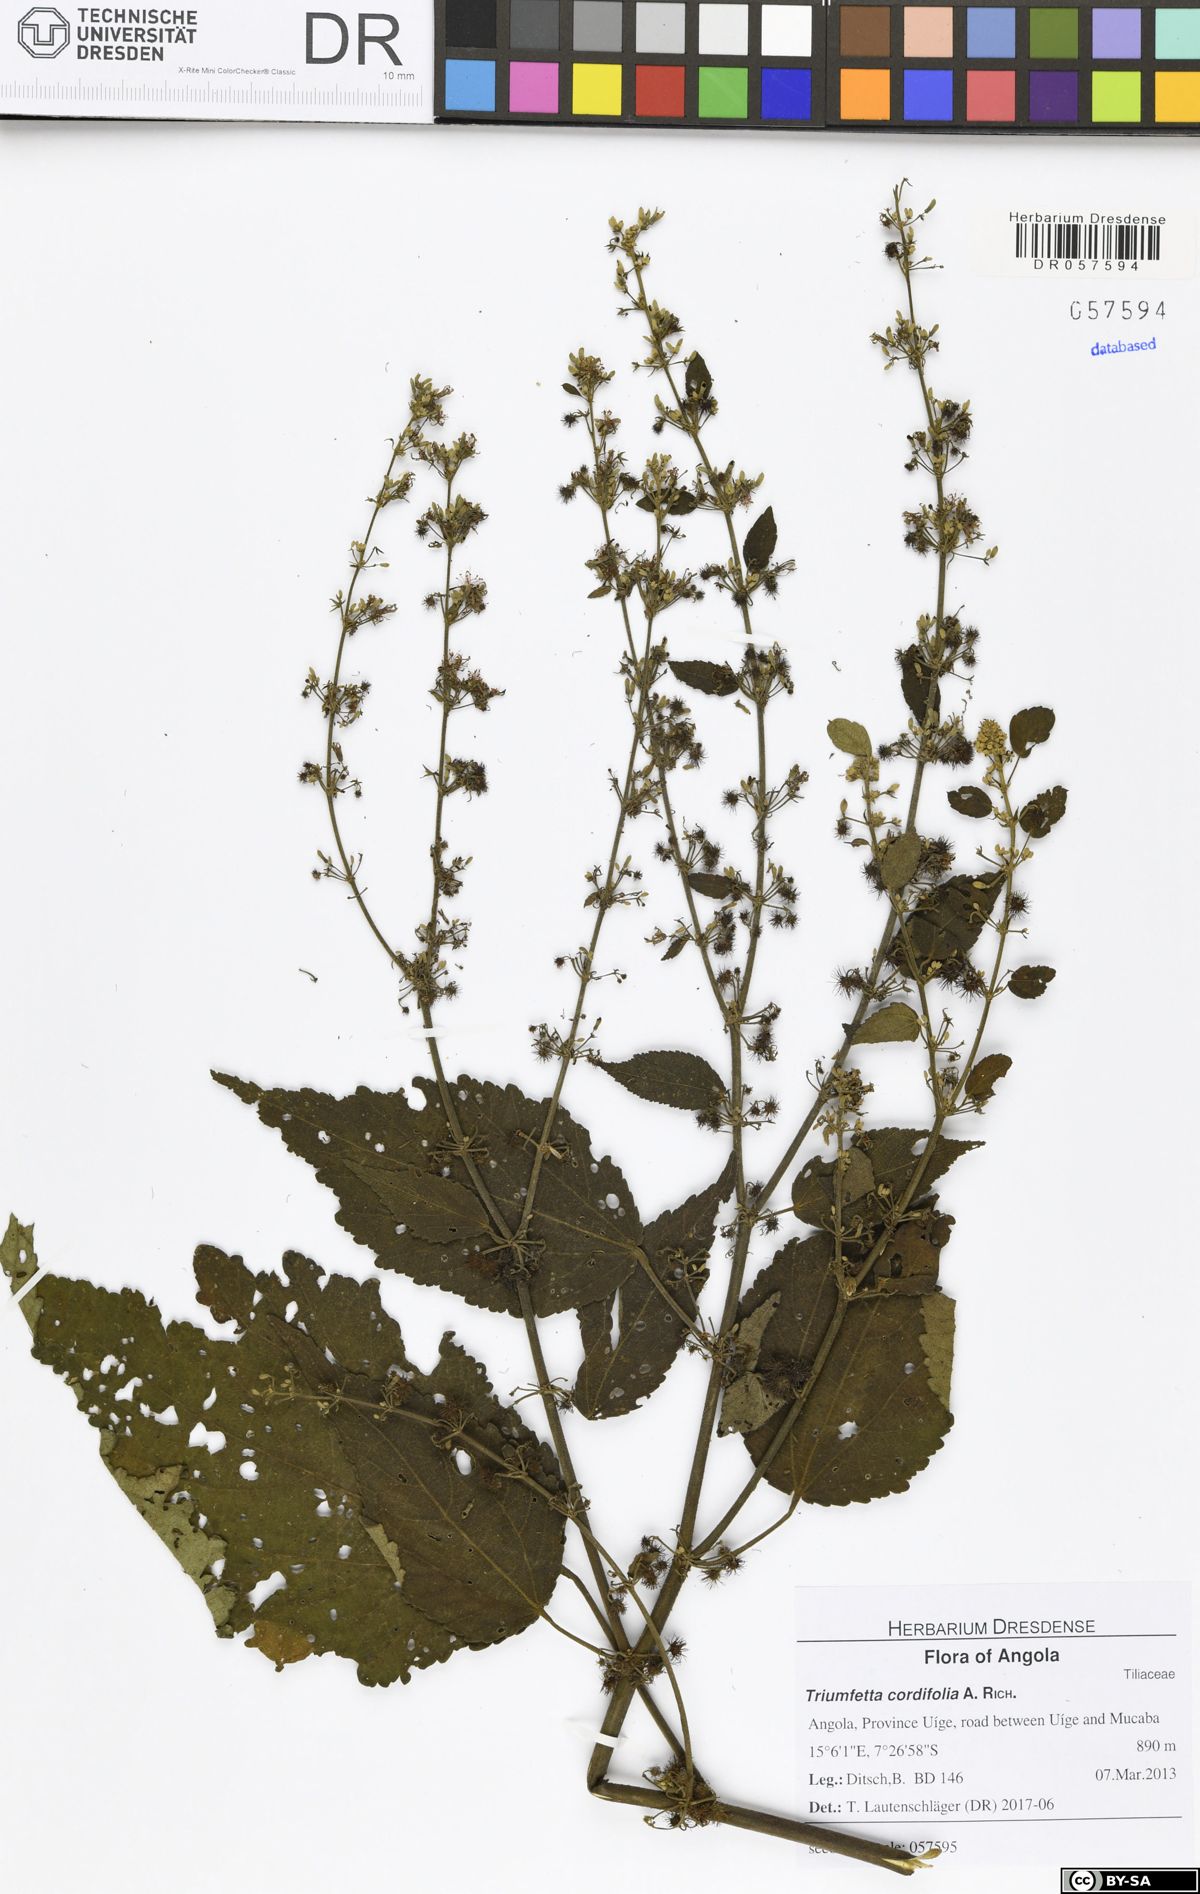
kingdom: Plantae
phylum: Tracheophyta
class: Magnoliopsida
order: Malvales
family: Malvaceae
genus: Triumfetta
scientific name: Triumfetta cordifolia
